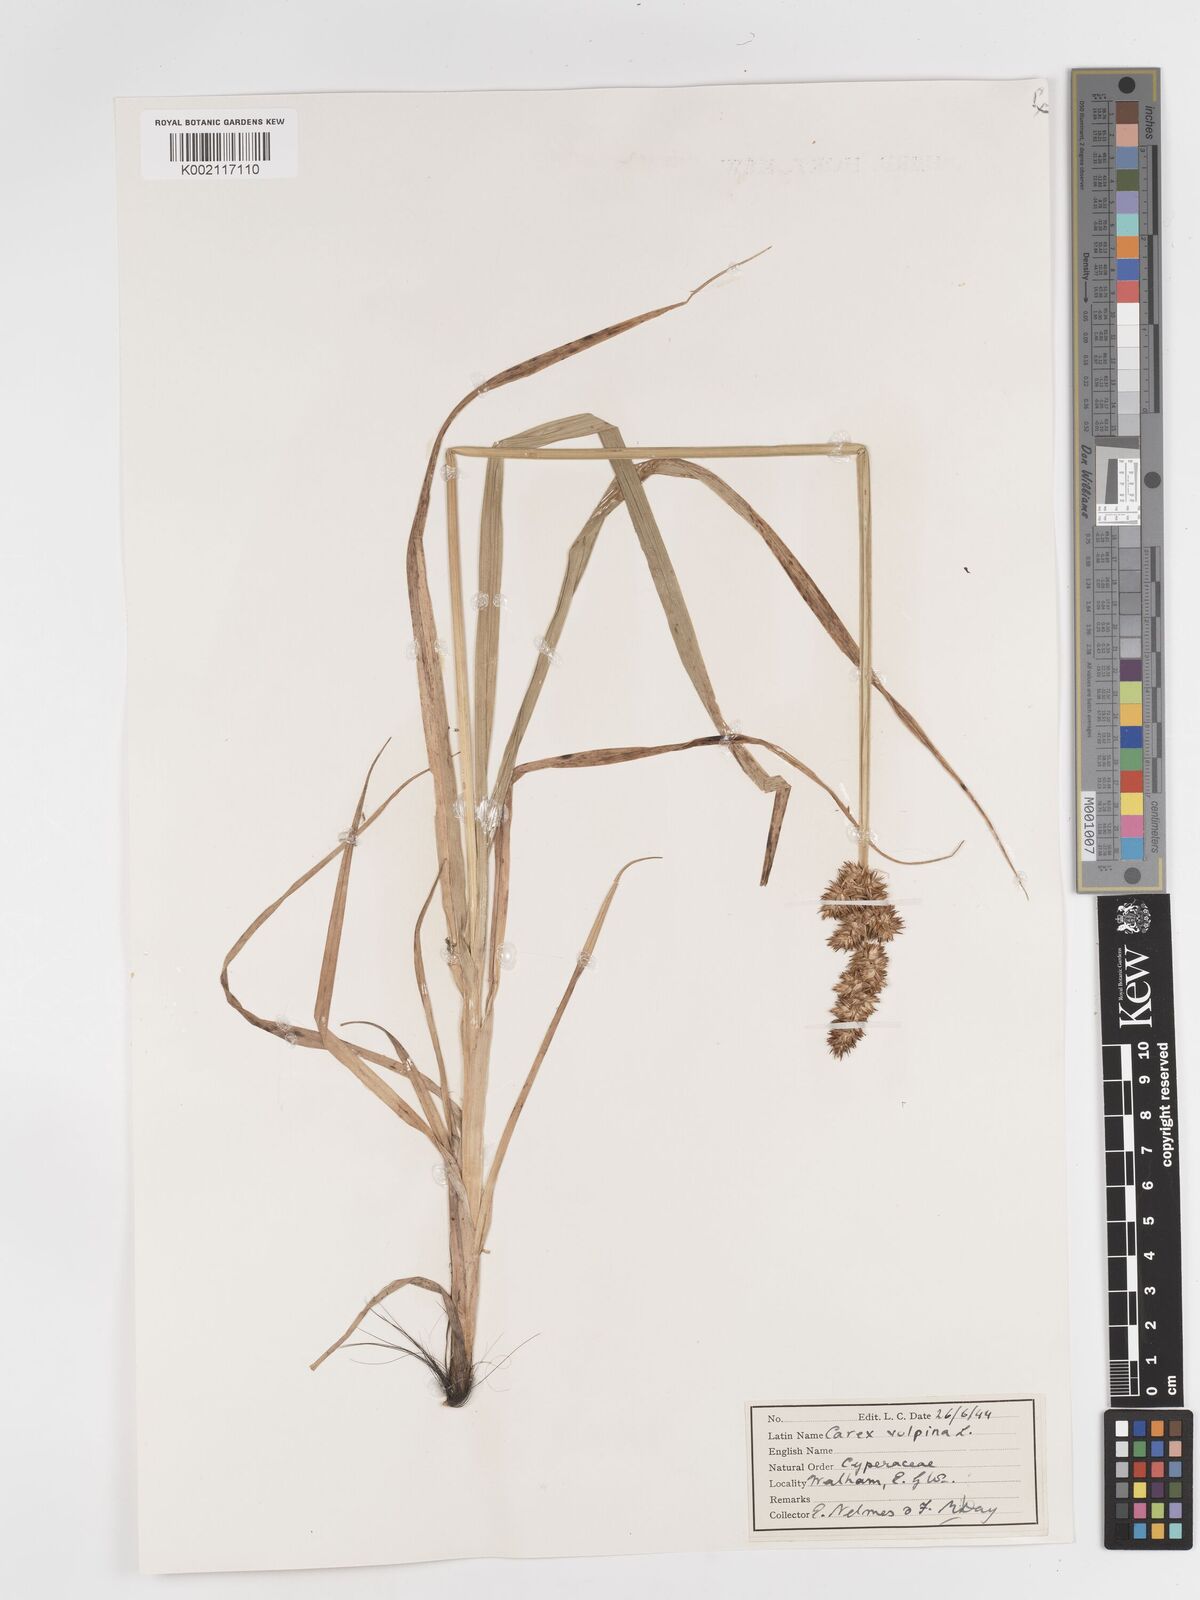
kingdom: Plantae
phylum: Tracheophyta
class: Liliopsida
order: Poales
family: Cyperaceae
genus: Carex
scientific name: Carex vulpina
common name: True fox-sedge
